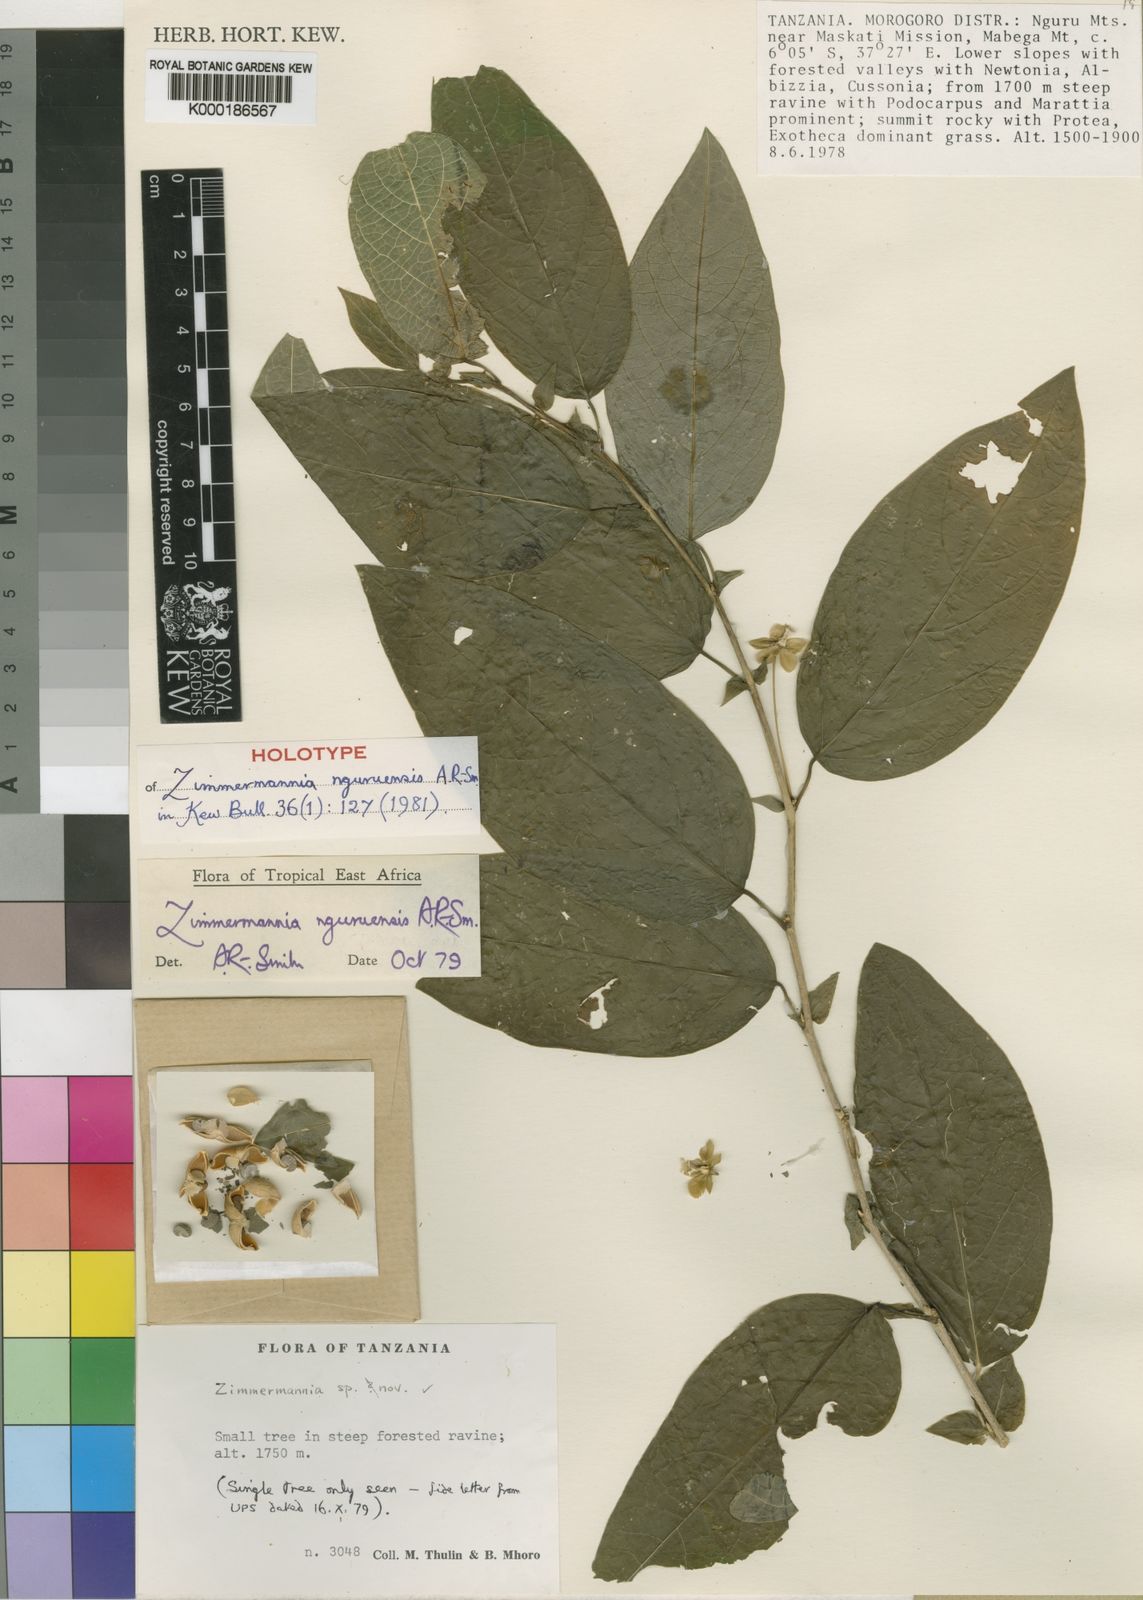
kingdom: Plantae
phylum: Tracheophyta
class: Magnoliopsida
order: Malpighiales
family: Phyllanthaceae
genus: Meineckia
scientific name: Meineckia nguruensis
